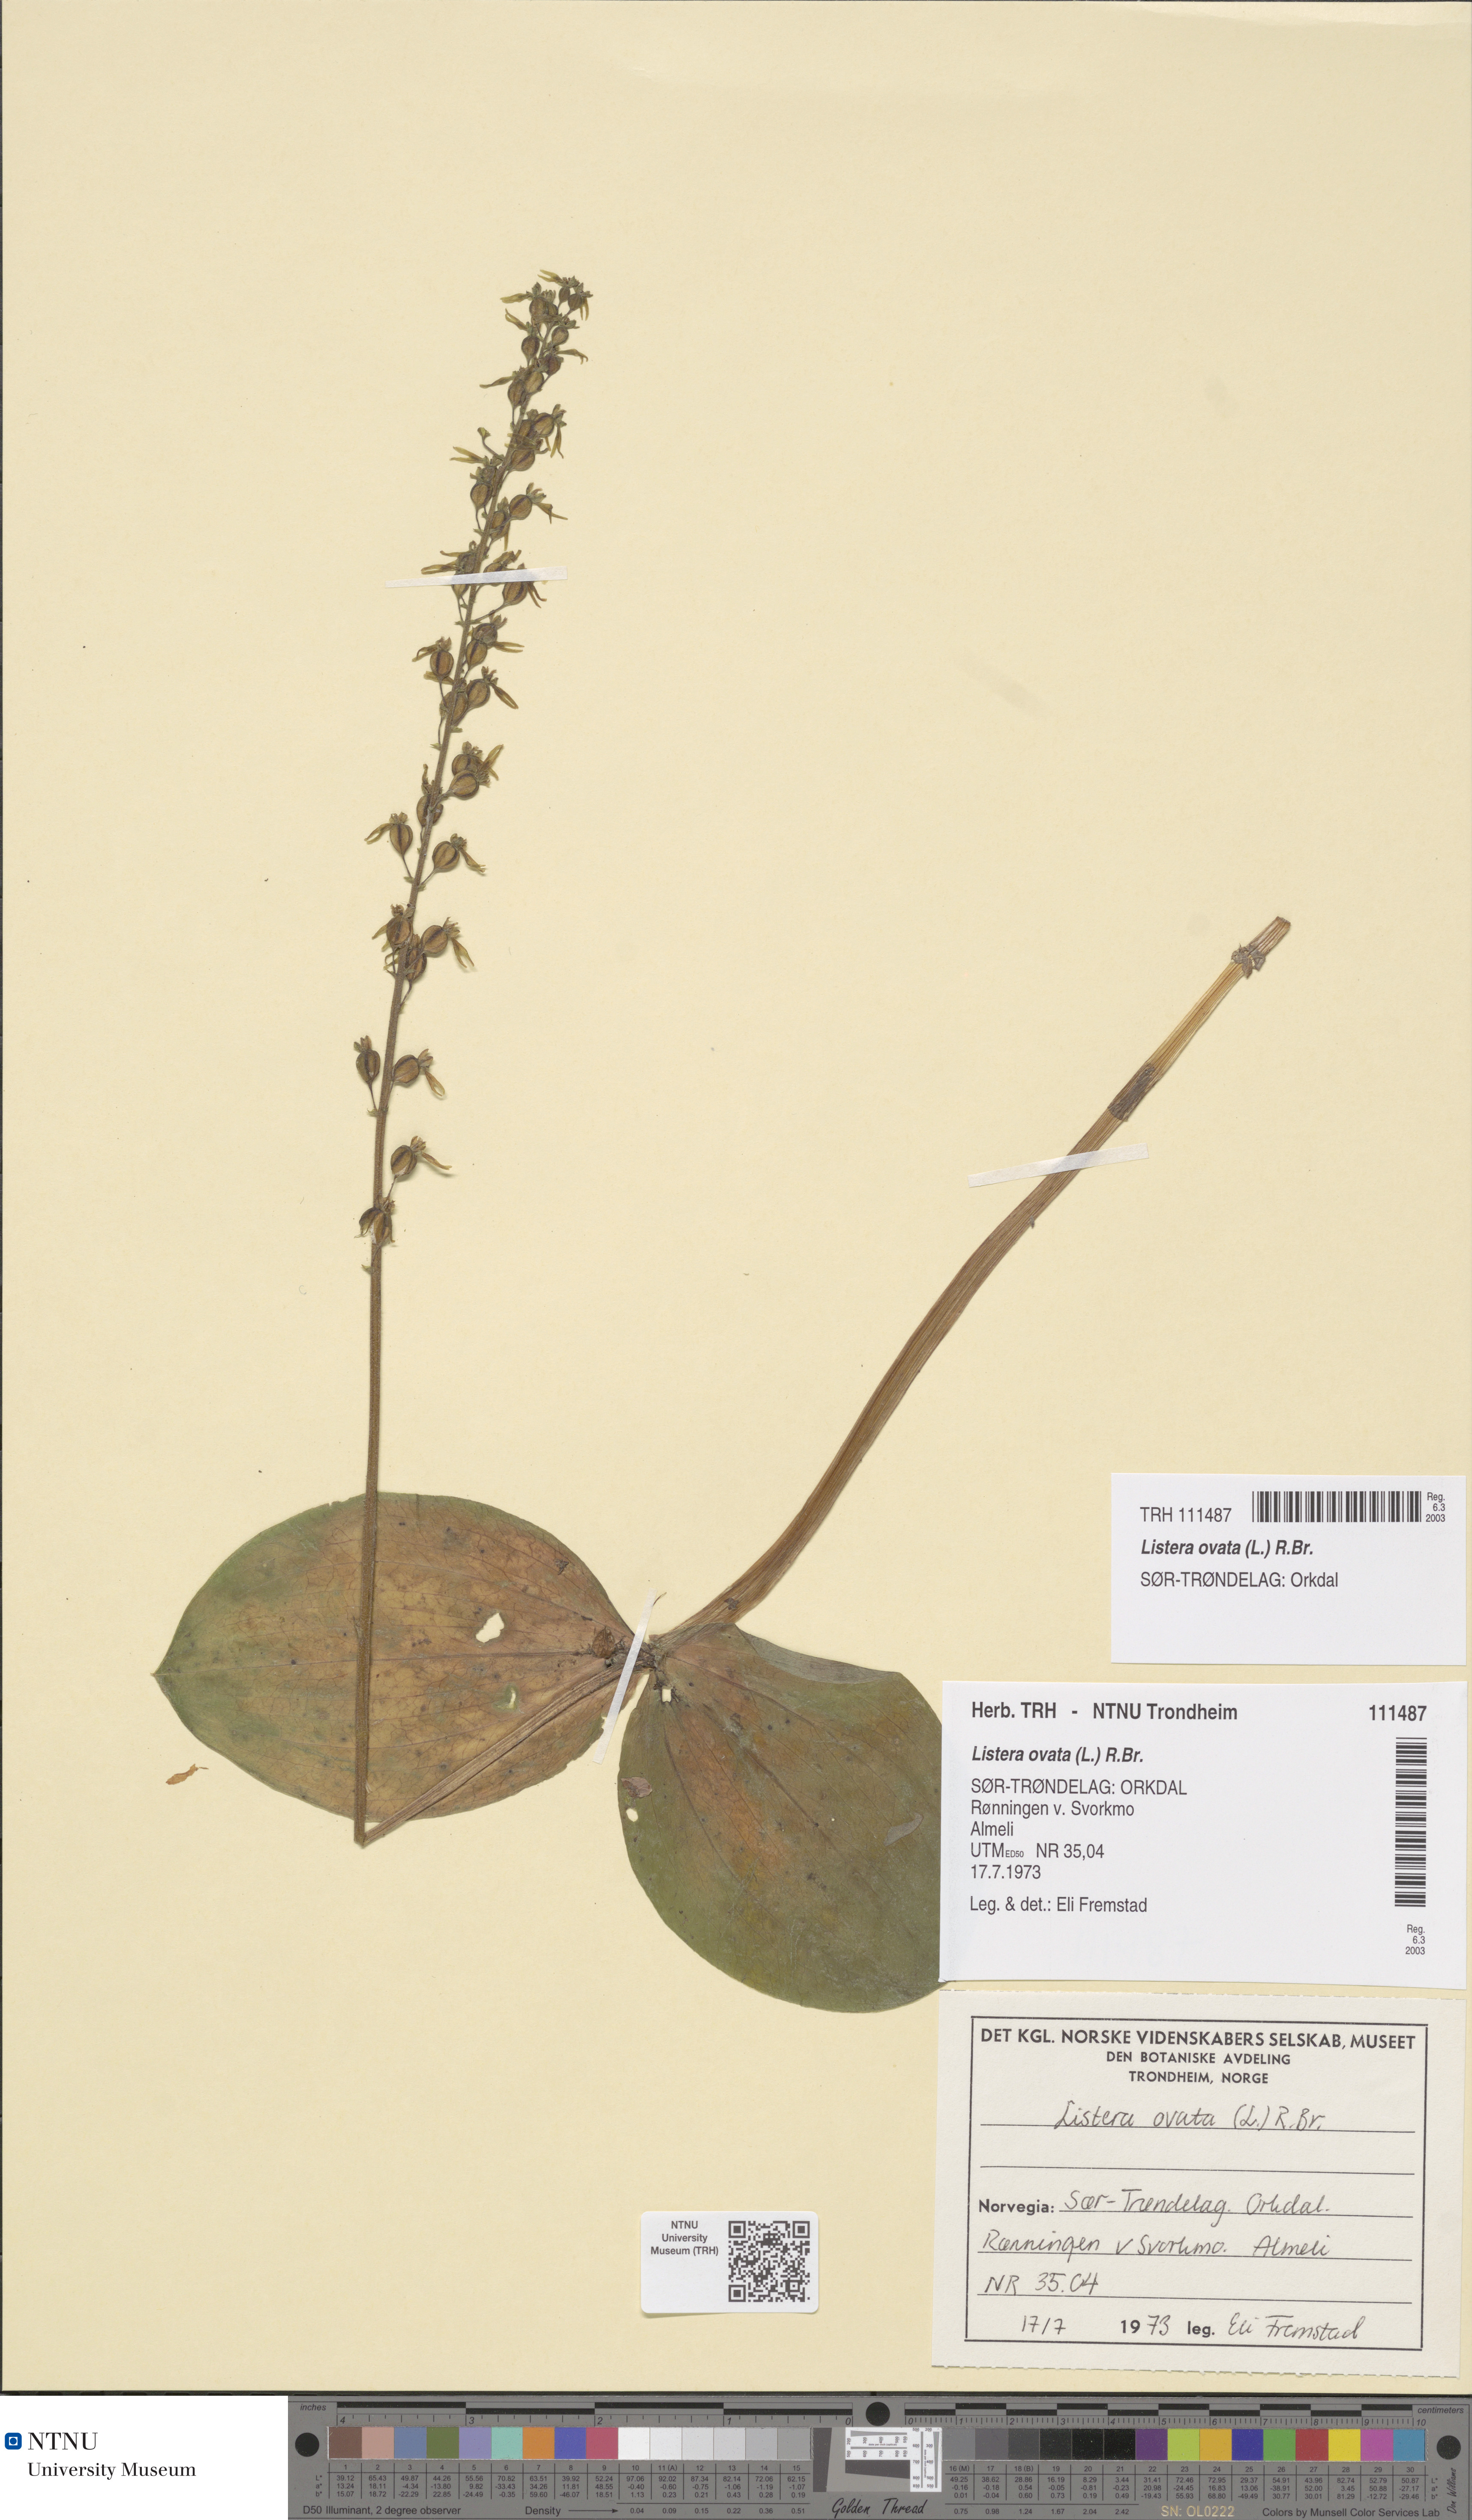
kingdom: Plantae
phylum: Tracheophyta
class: Liliopsida
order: Asparagales
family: Orchidaceae
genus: Neottia
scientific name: Neottia ovata
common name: Common twayblade
